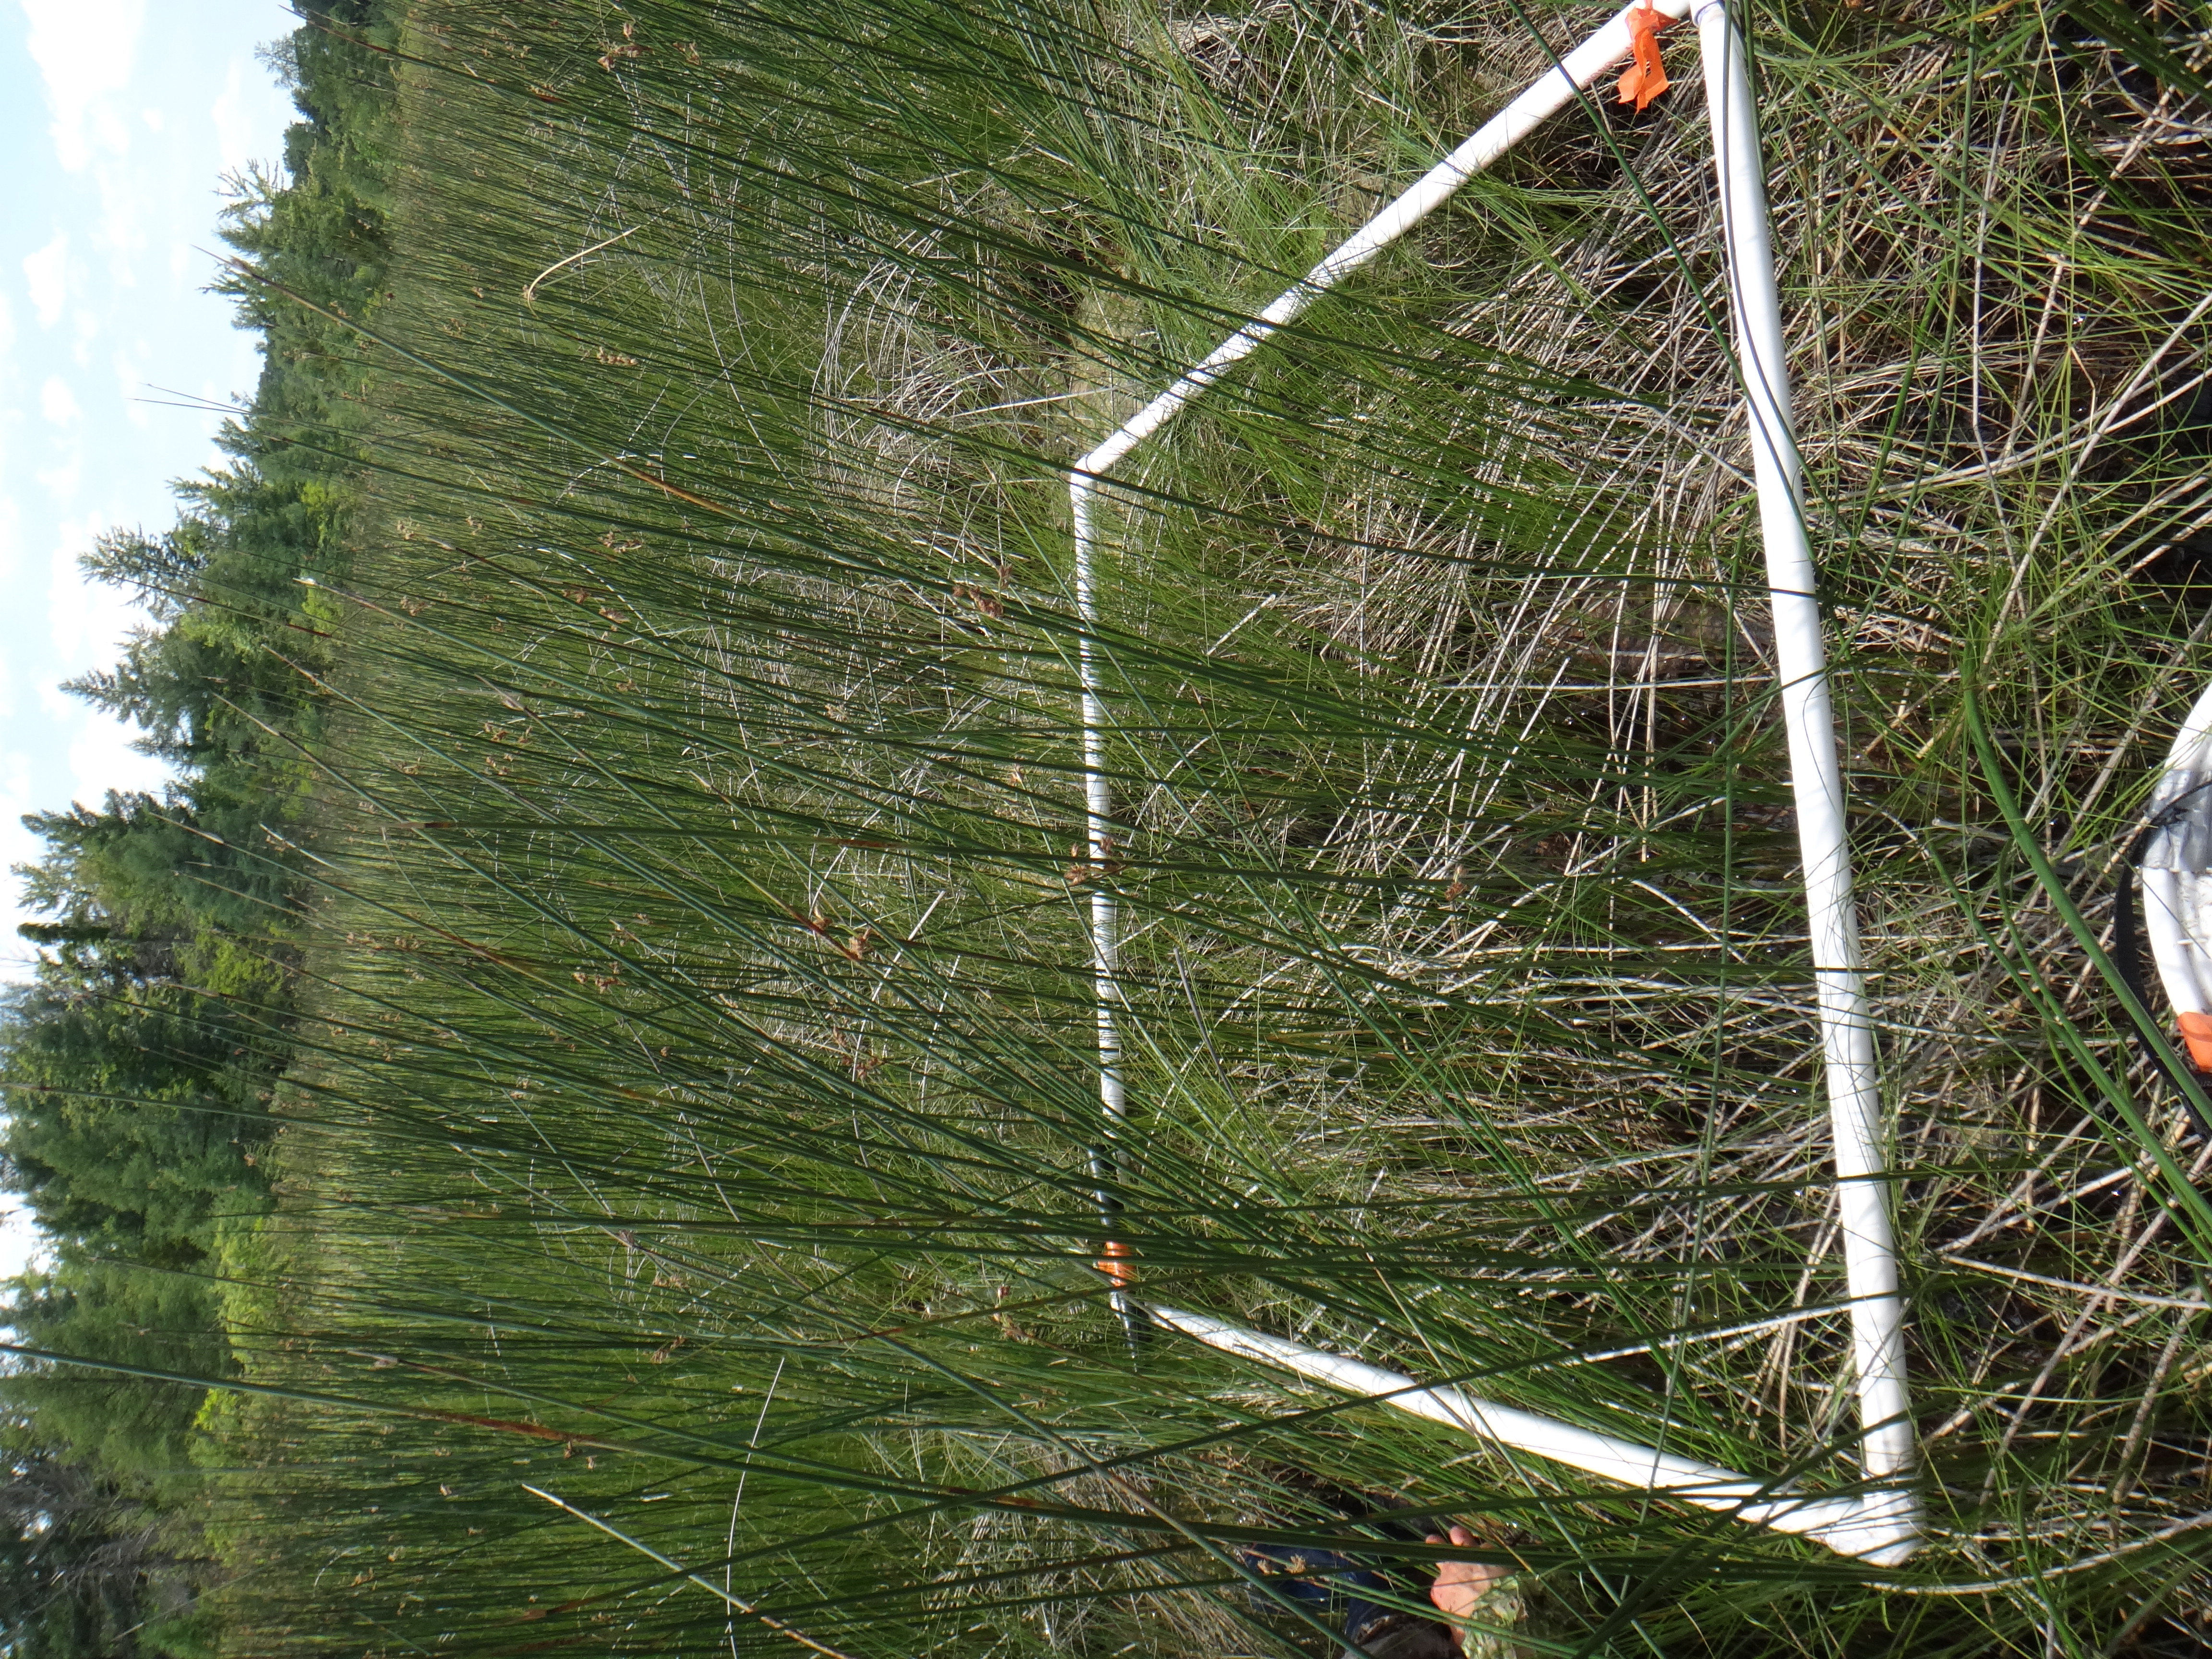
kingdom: Plantae
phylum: Tracheophyta
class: Liliopsida
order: Poales
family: Cyperaceae
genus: Carex
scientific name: Carex lasiocarpa
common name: Slender sedge
